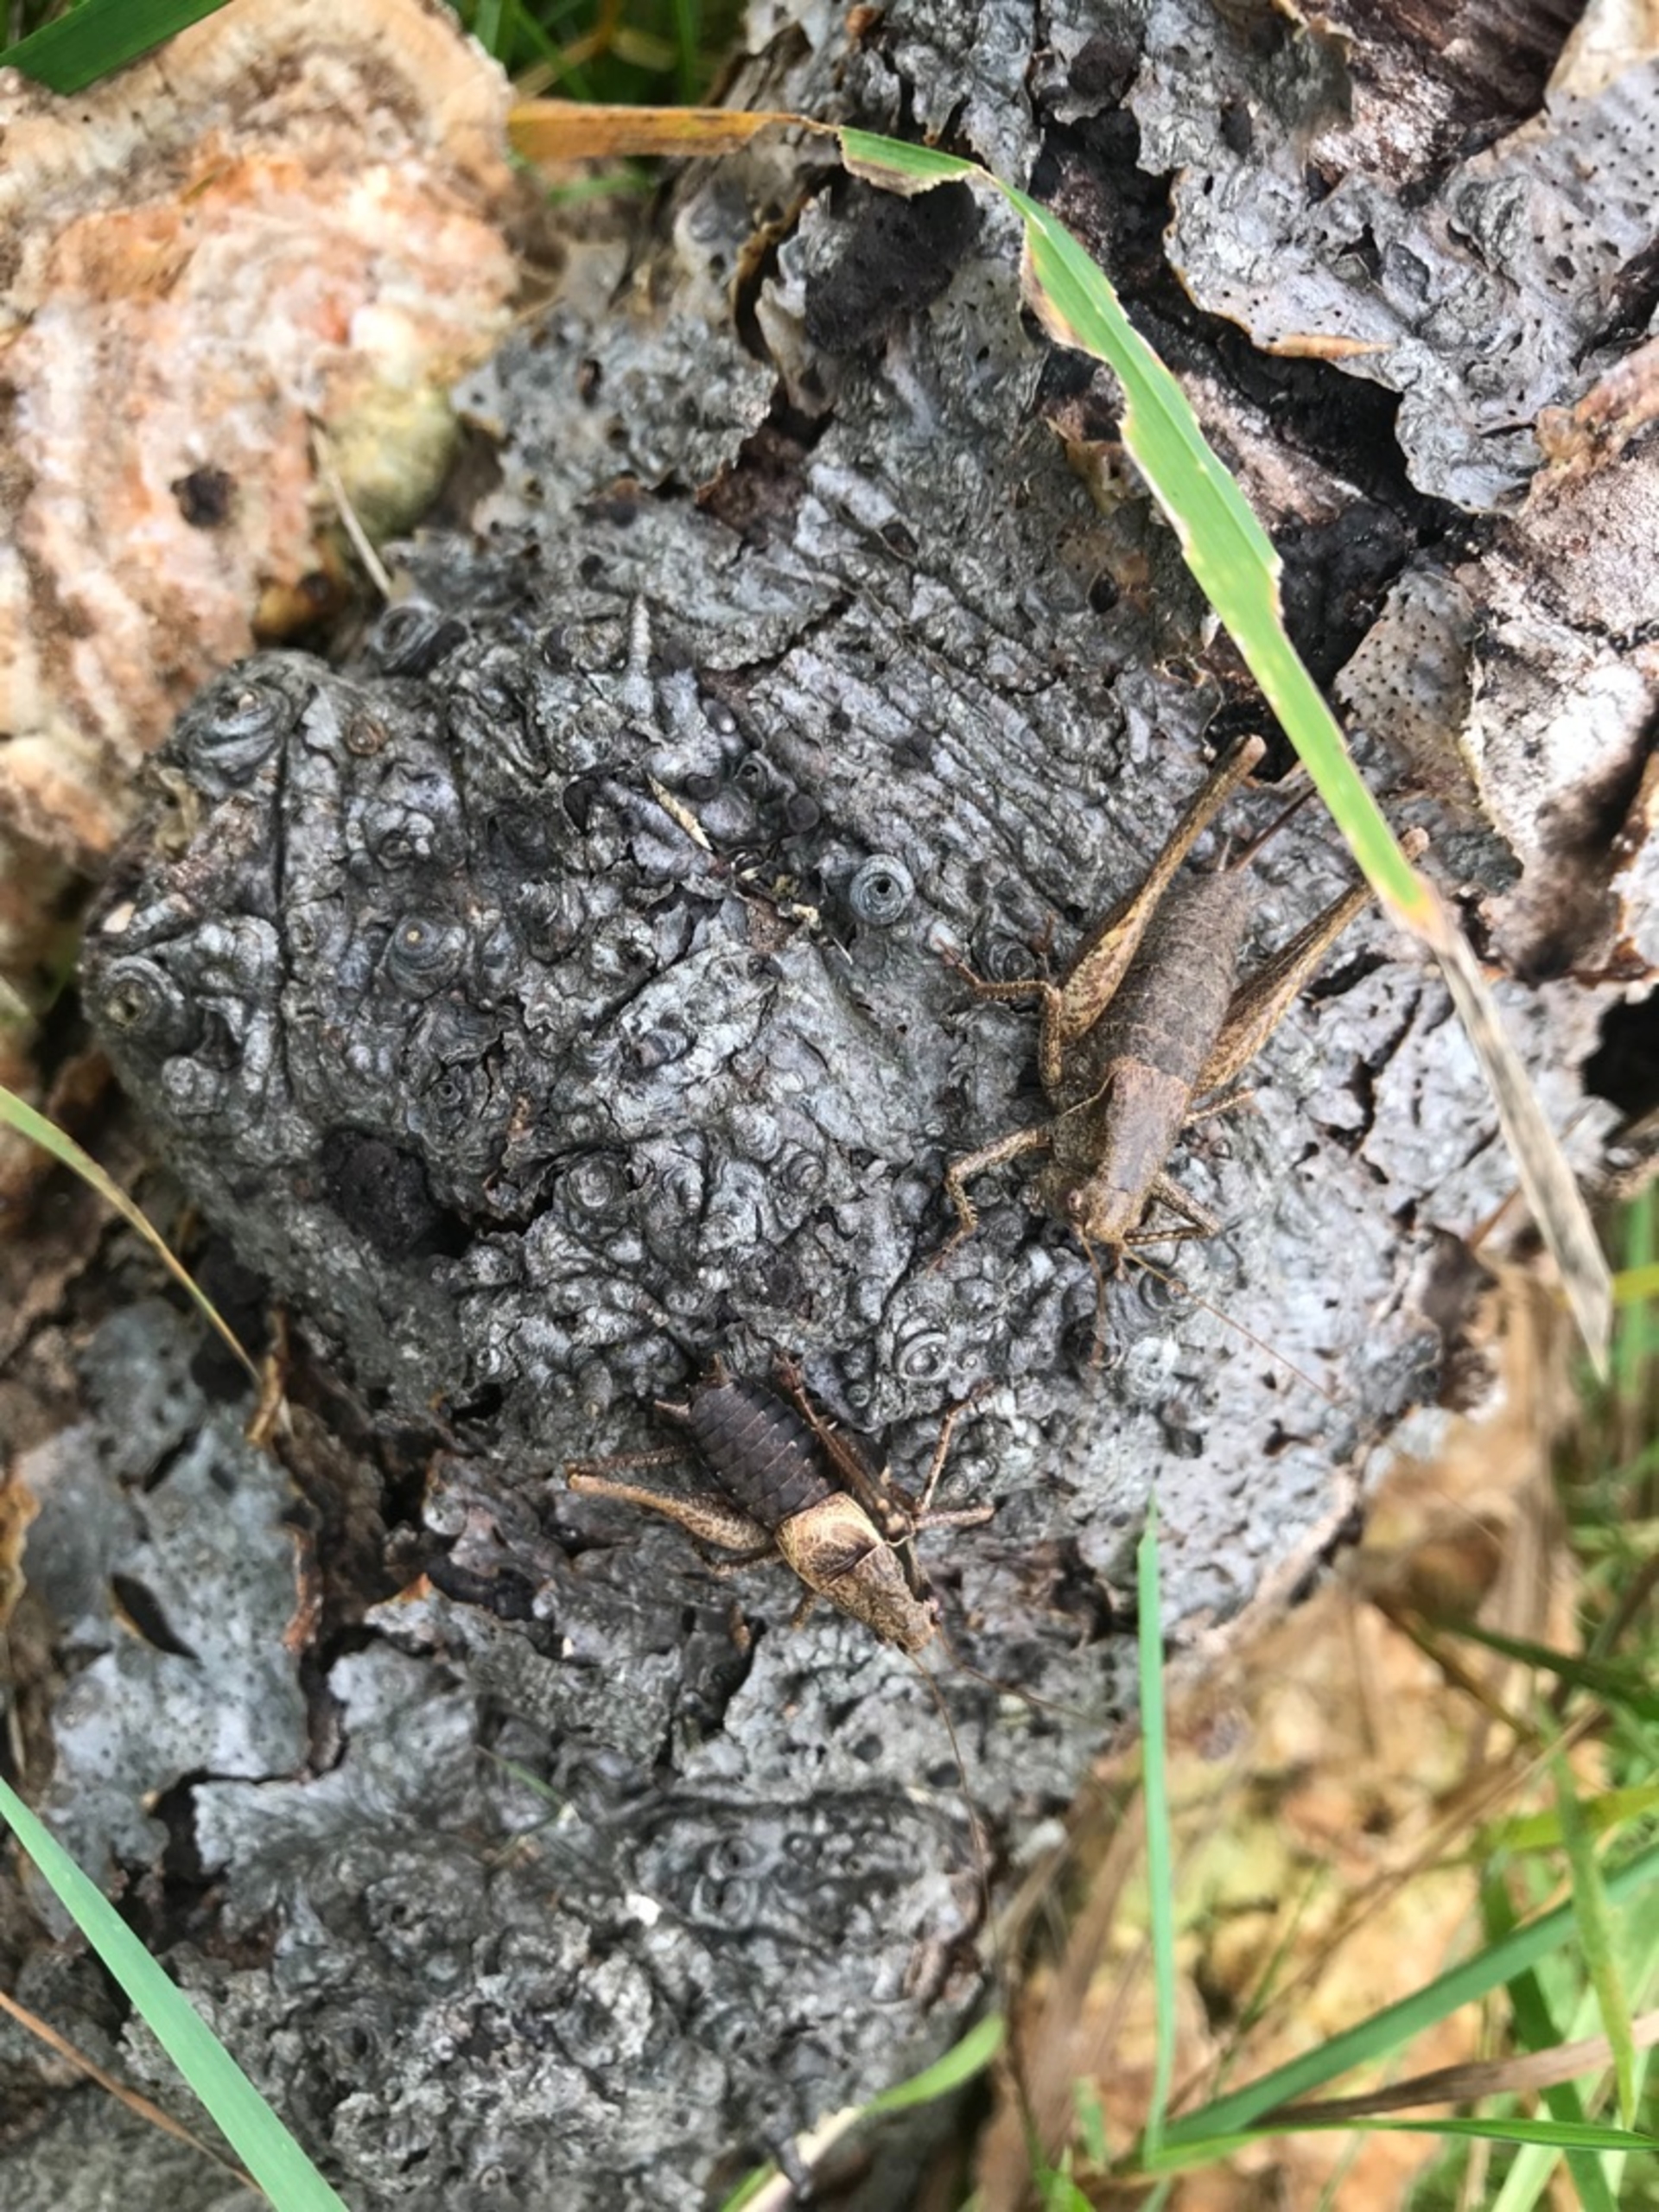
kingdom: Animalia
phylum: Arthropoda
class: Insecta
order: Orthoptera
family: Tettigoniidae
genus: Pholidoptera
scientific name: Pholidoptera griseoaptera
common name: Buskgræshoppe
